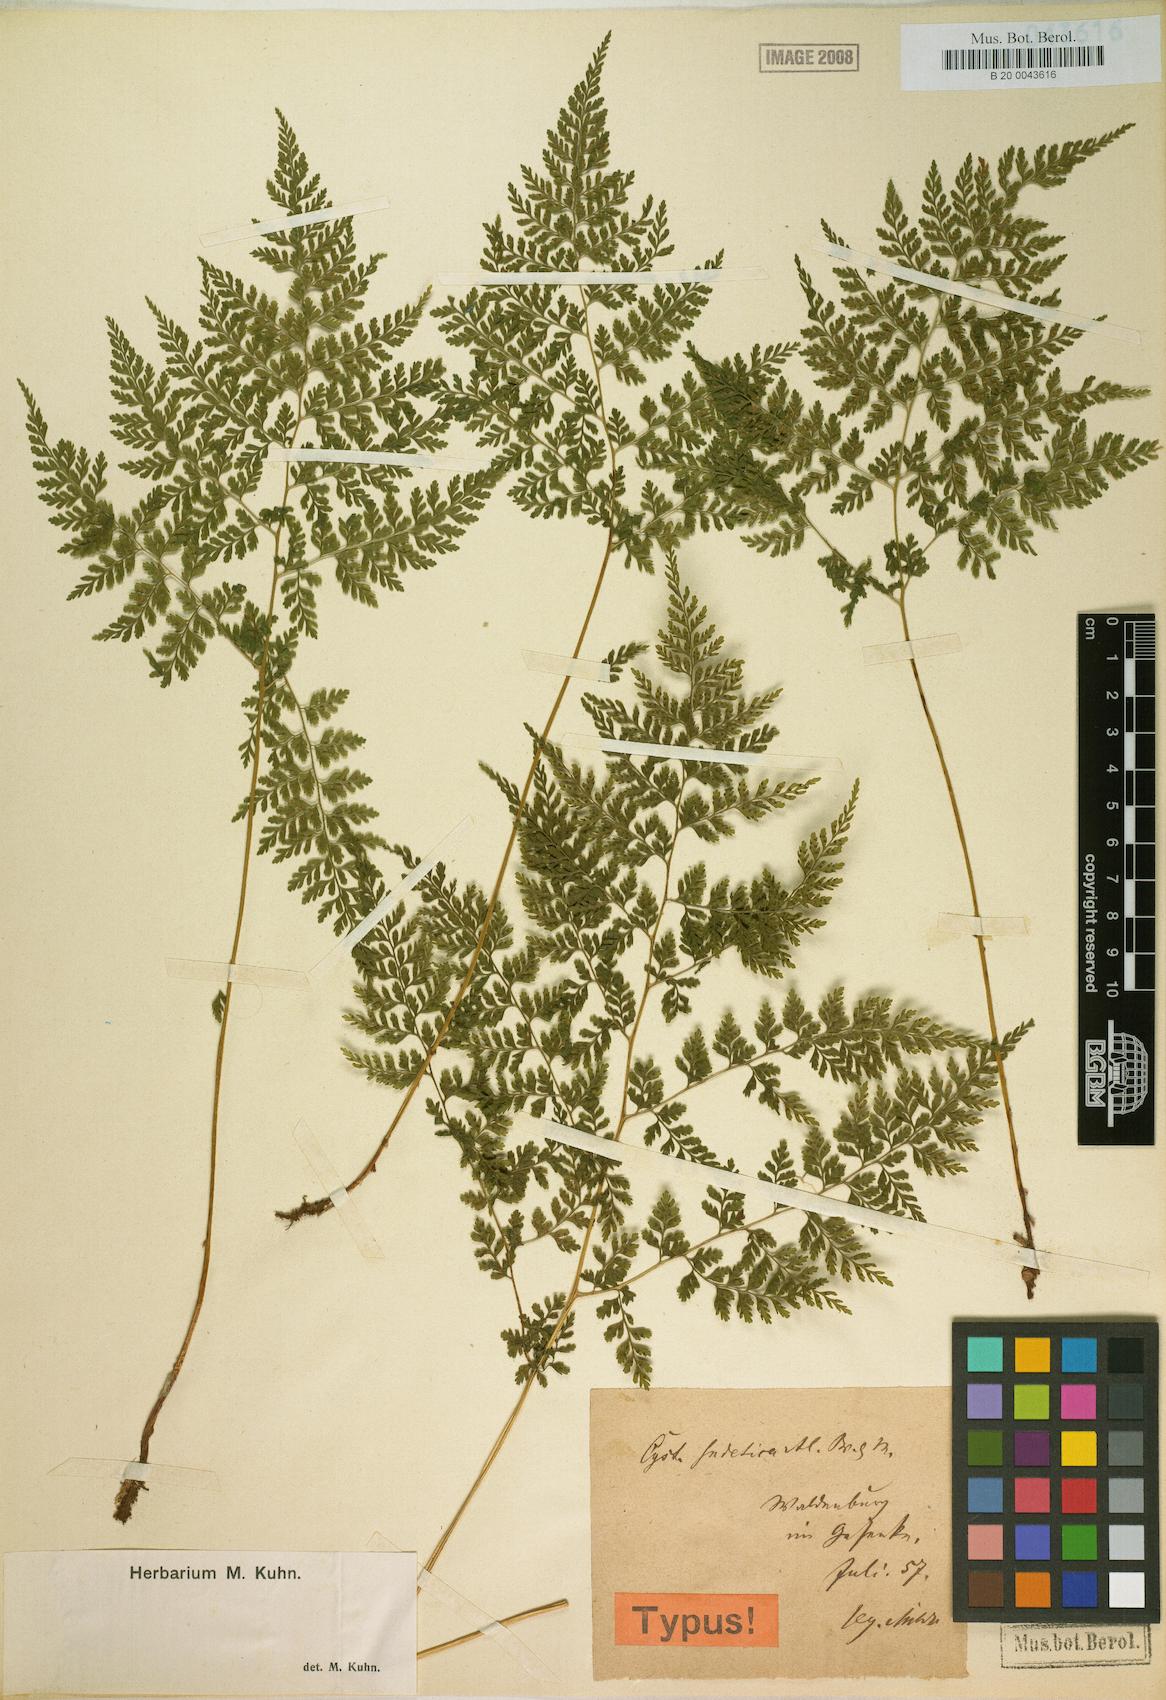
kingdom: Plantae
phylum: Tracheophyta
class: Polypodiopsida
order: Polypodiales
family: Cystopteridaceae
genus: Cystopteris
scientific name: Cystopteris sudetica
